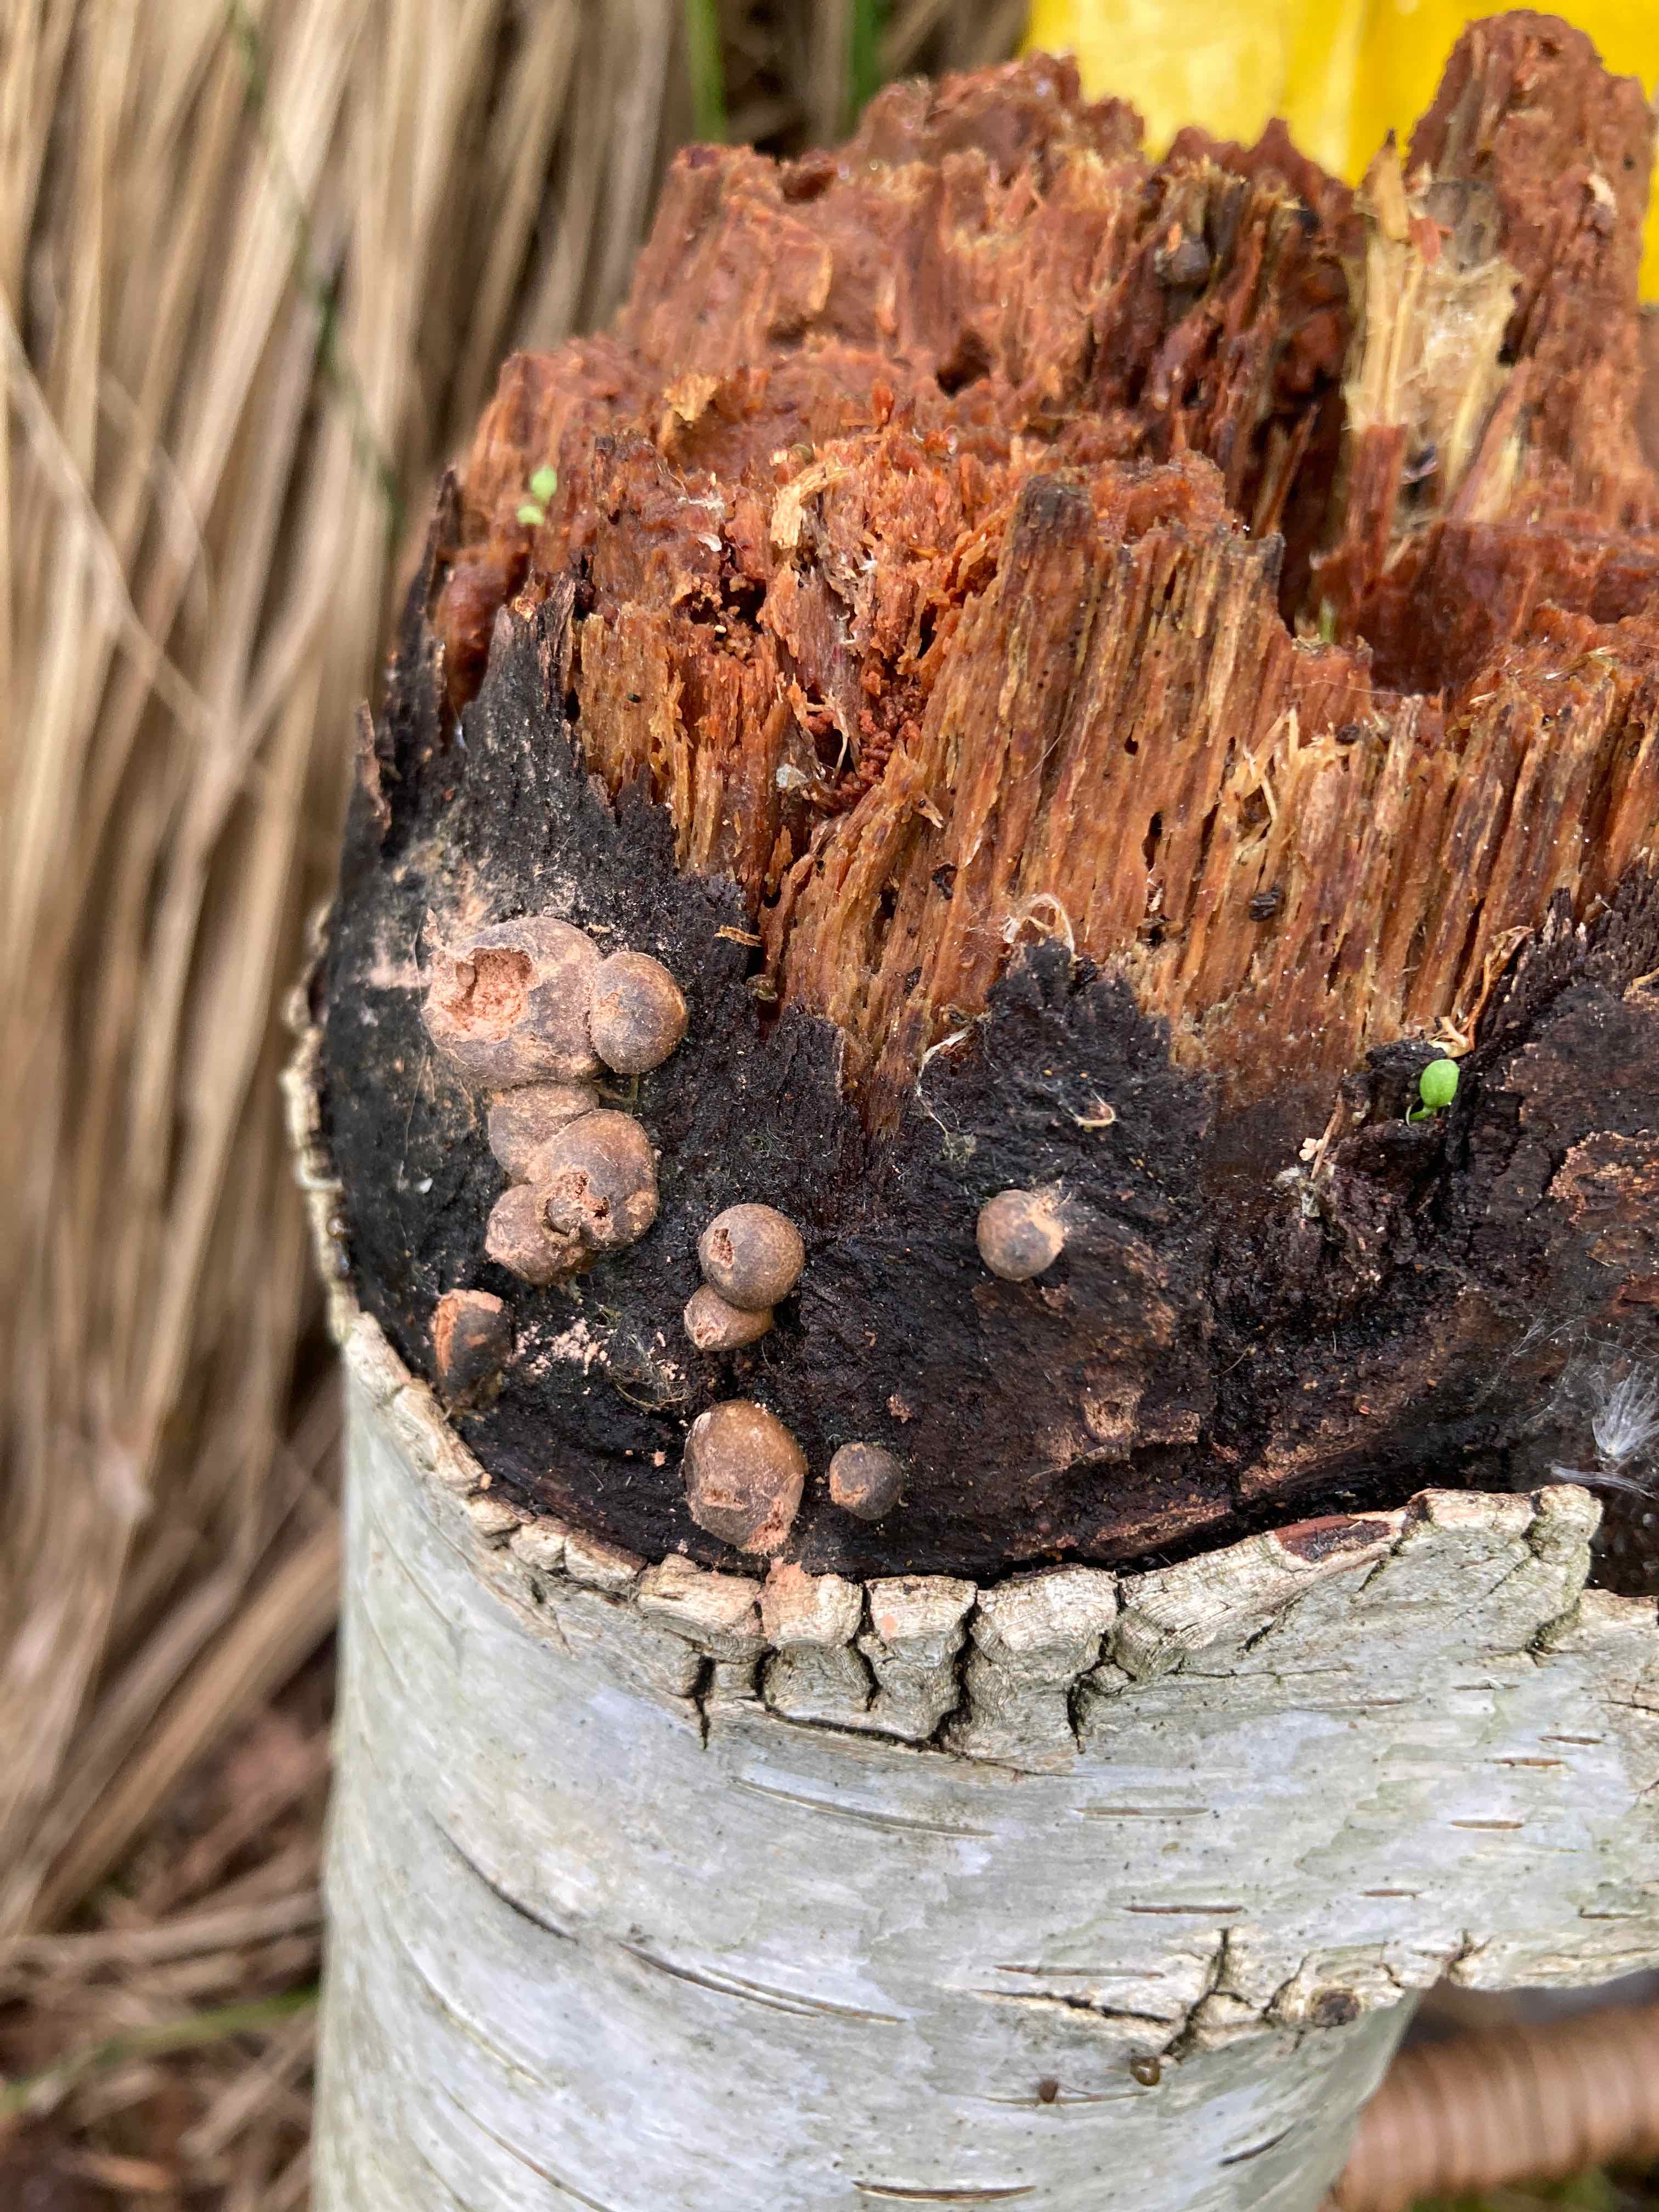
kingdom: Protozoa
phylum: Mycetozoa
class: Myxomycetes
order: Cribrariales
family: Tubiferaceae
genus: Lycogala
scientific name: Lycogala epidendrum
